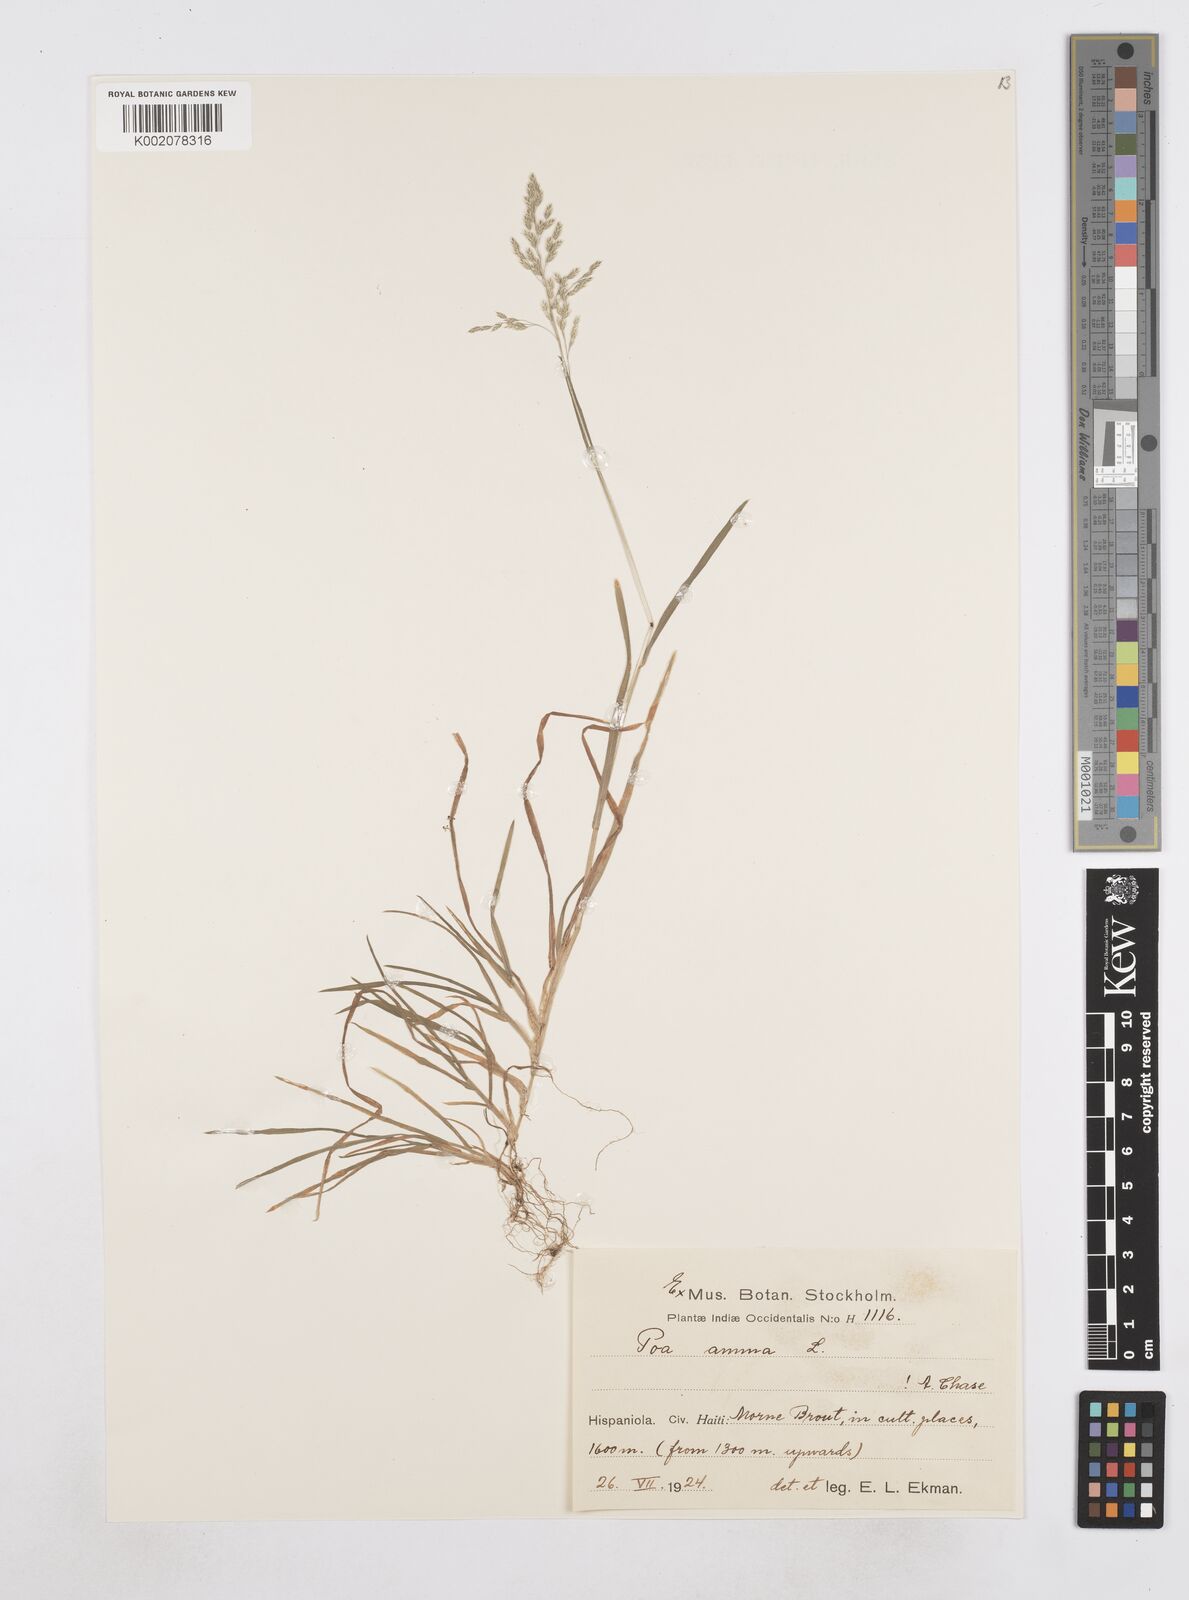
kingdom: Plantae
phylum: Tracheophyta
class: Liliopsida
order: Poales
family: Poaceae
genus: Poa
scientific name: Poa annua
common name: Annual bluegrass
